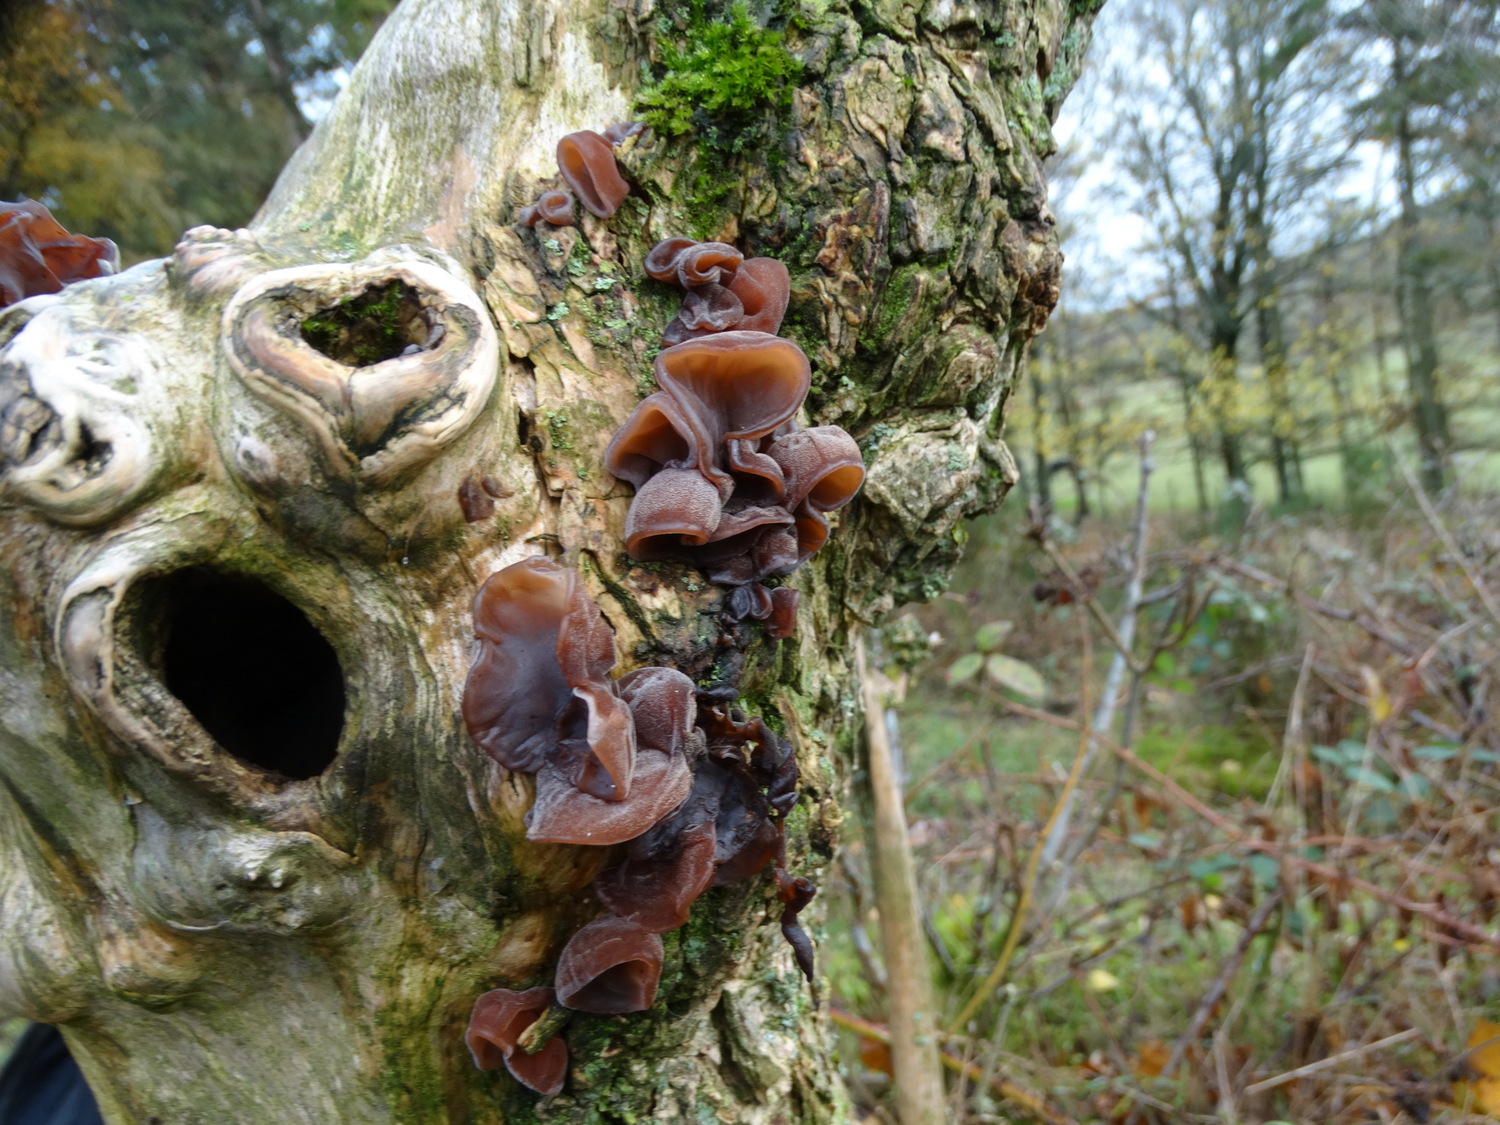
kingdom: Fungi
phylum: Basidiomycota
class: Agaricomycetes
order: Auriculariales
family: Auriculariaceae
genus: Auricularia
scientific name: Auricularia auricula-judae
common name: almindelig judasøre
